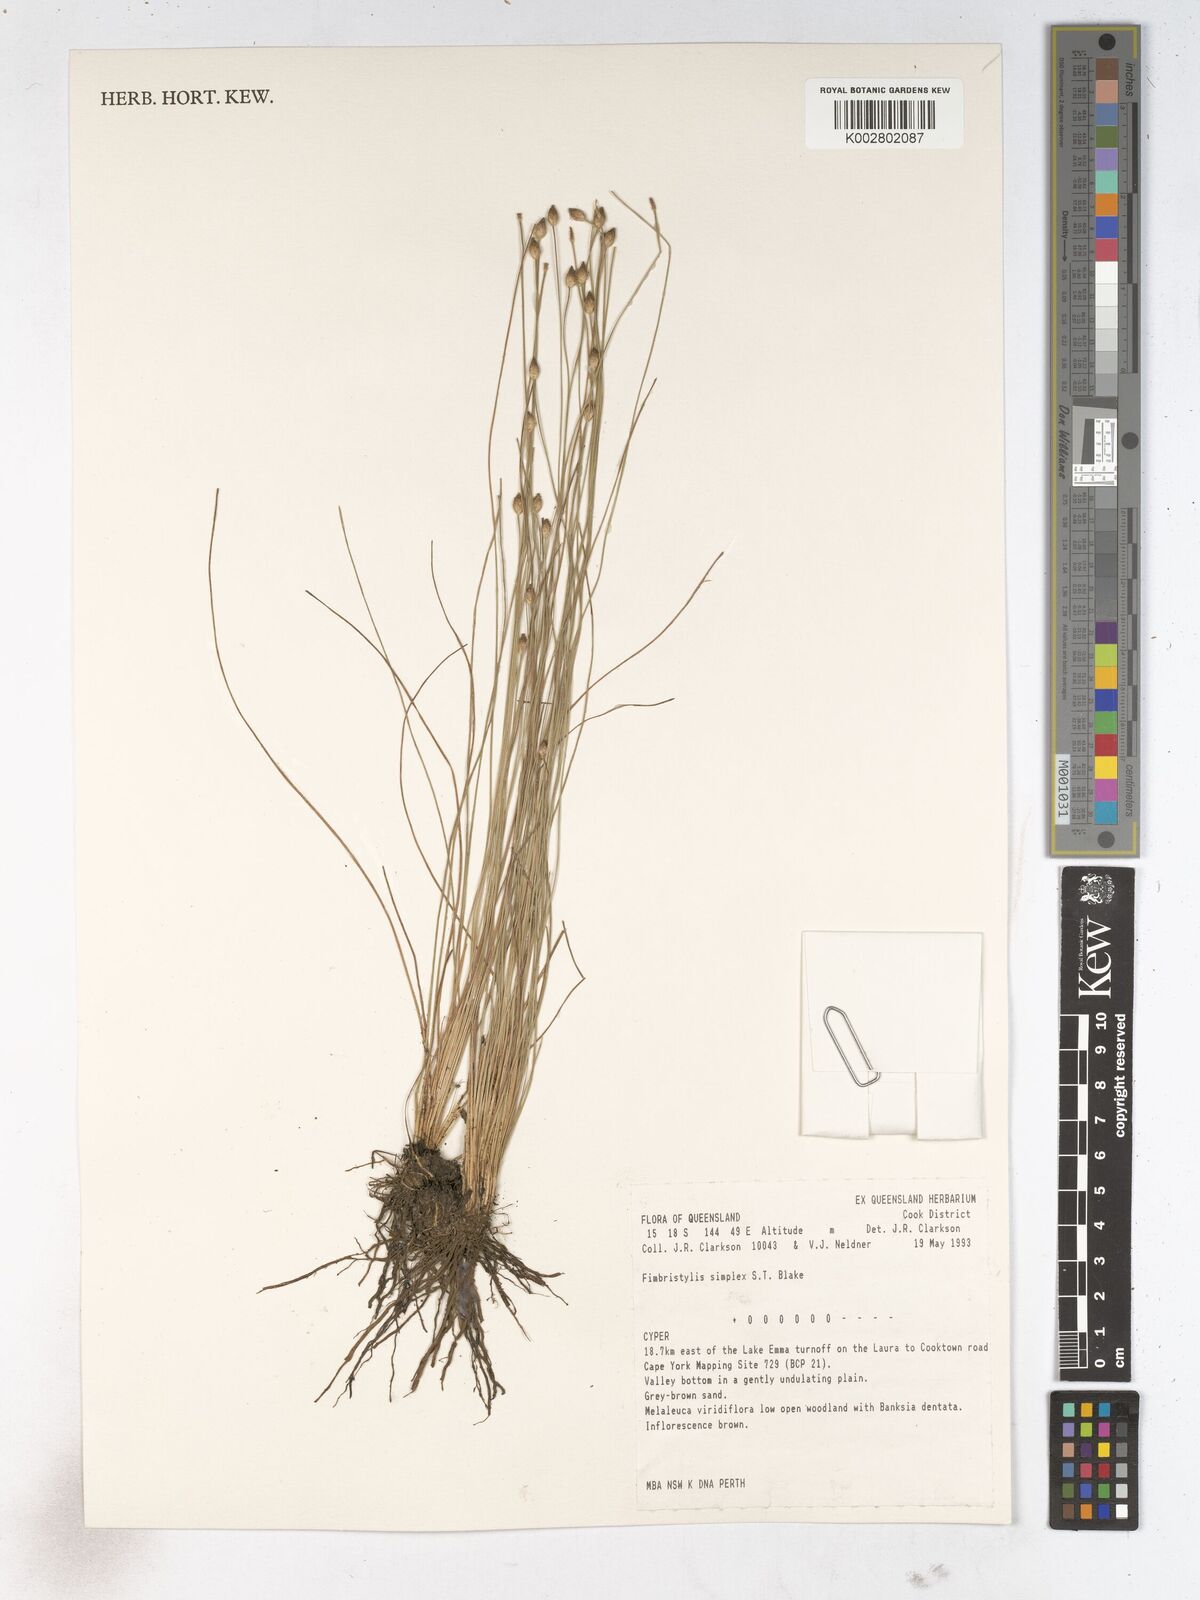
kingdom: Plantae
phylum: Tracheophyta
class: Liliopsida
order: Poales
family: Cyperaceae
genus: Fimbristylis
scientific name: Fimbristylis simplex
